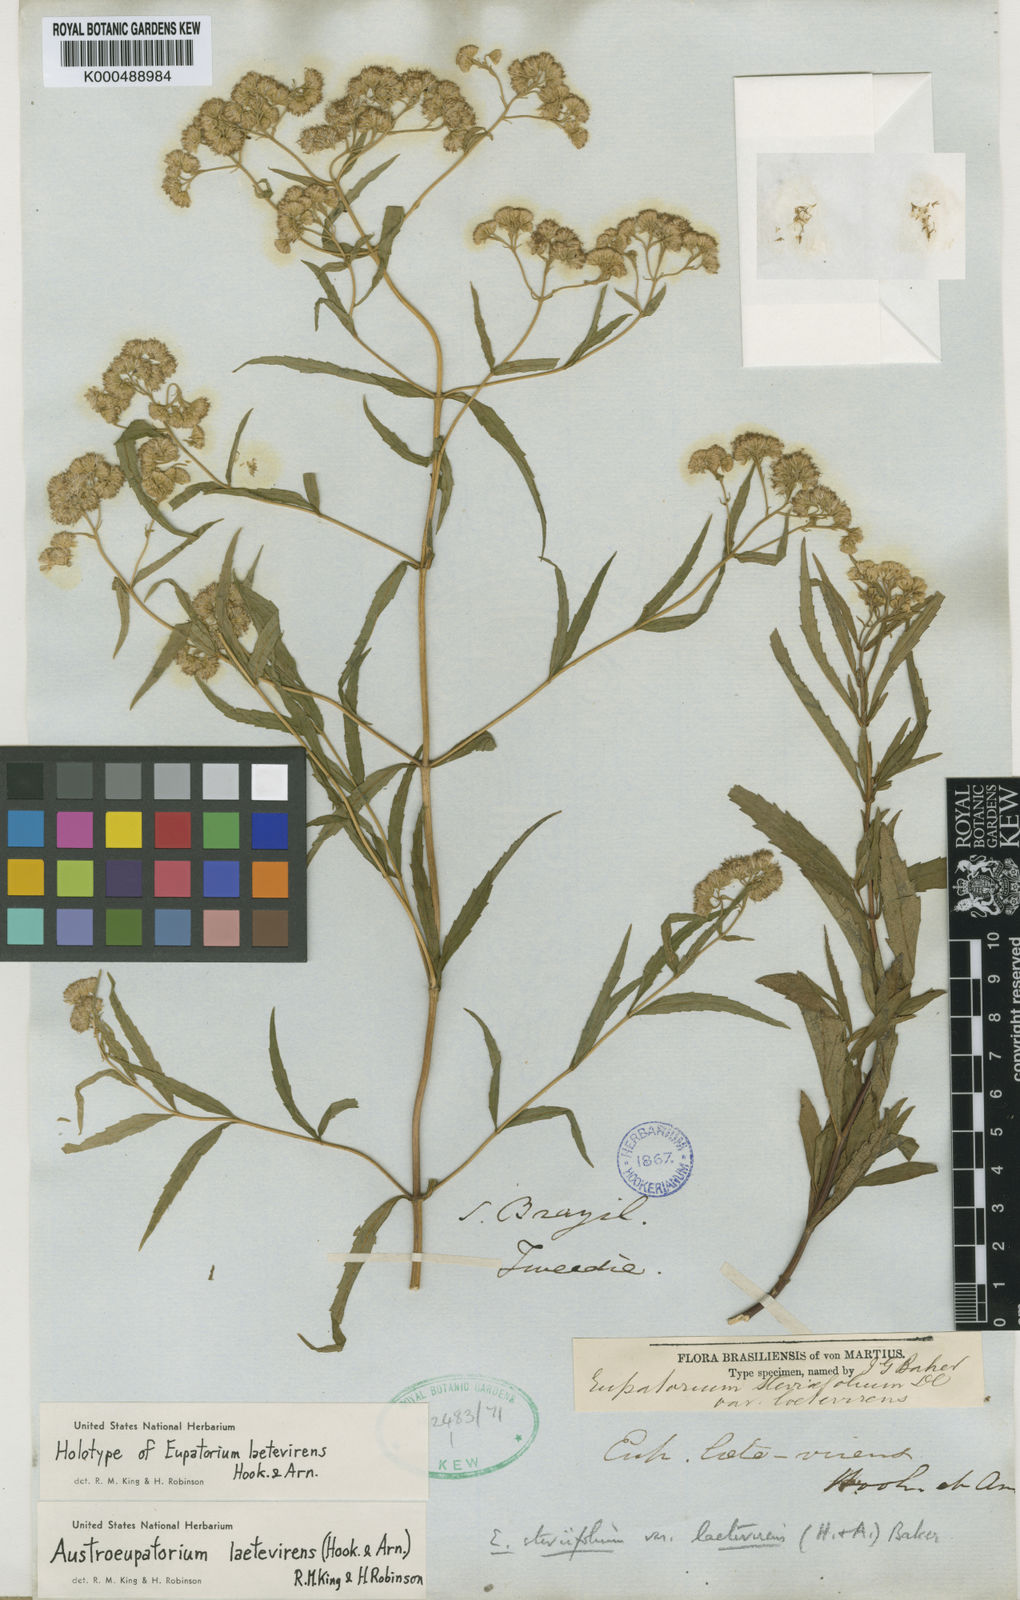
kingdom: Plantae
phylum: Tracheophyta
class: Magnoliopsida
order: Asterales
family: Asteraceae
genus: Hatschbachiella
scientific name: Hatschbachiella tweedieana
